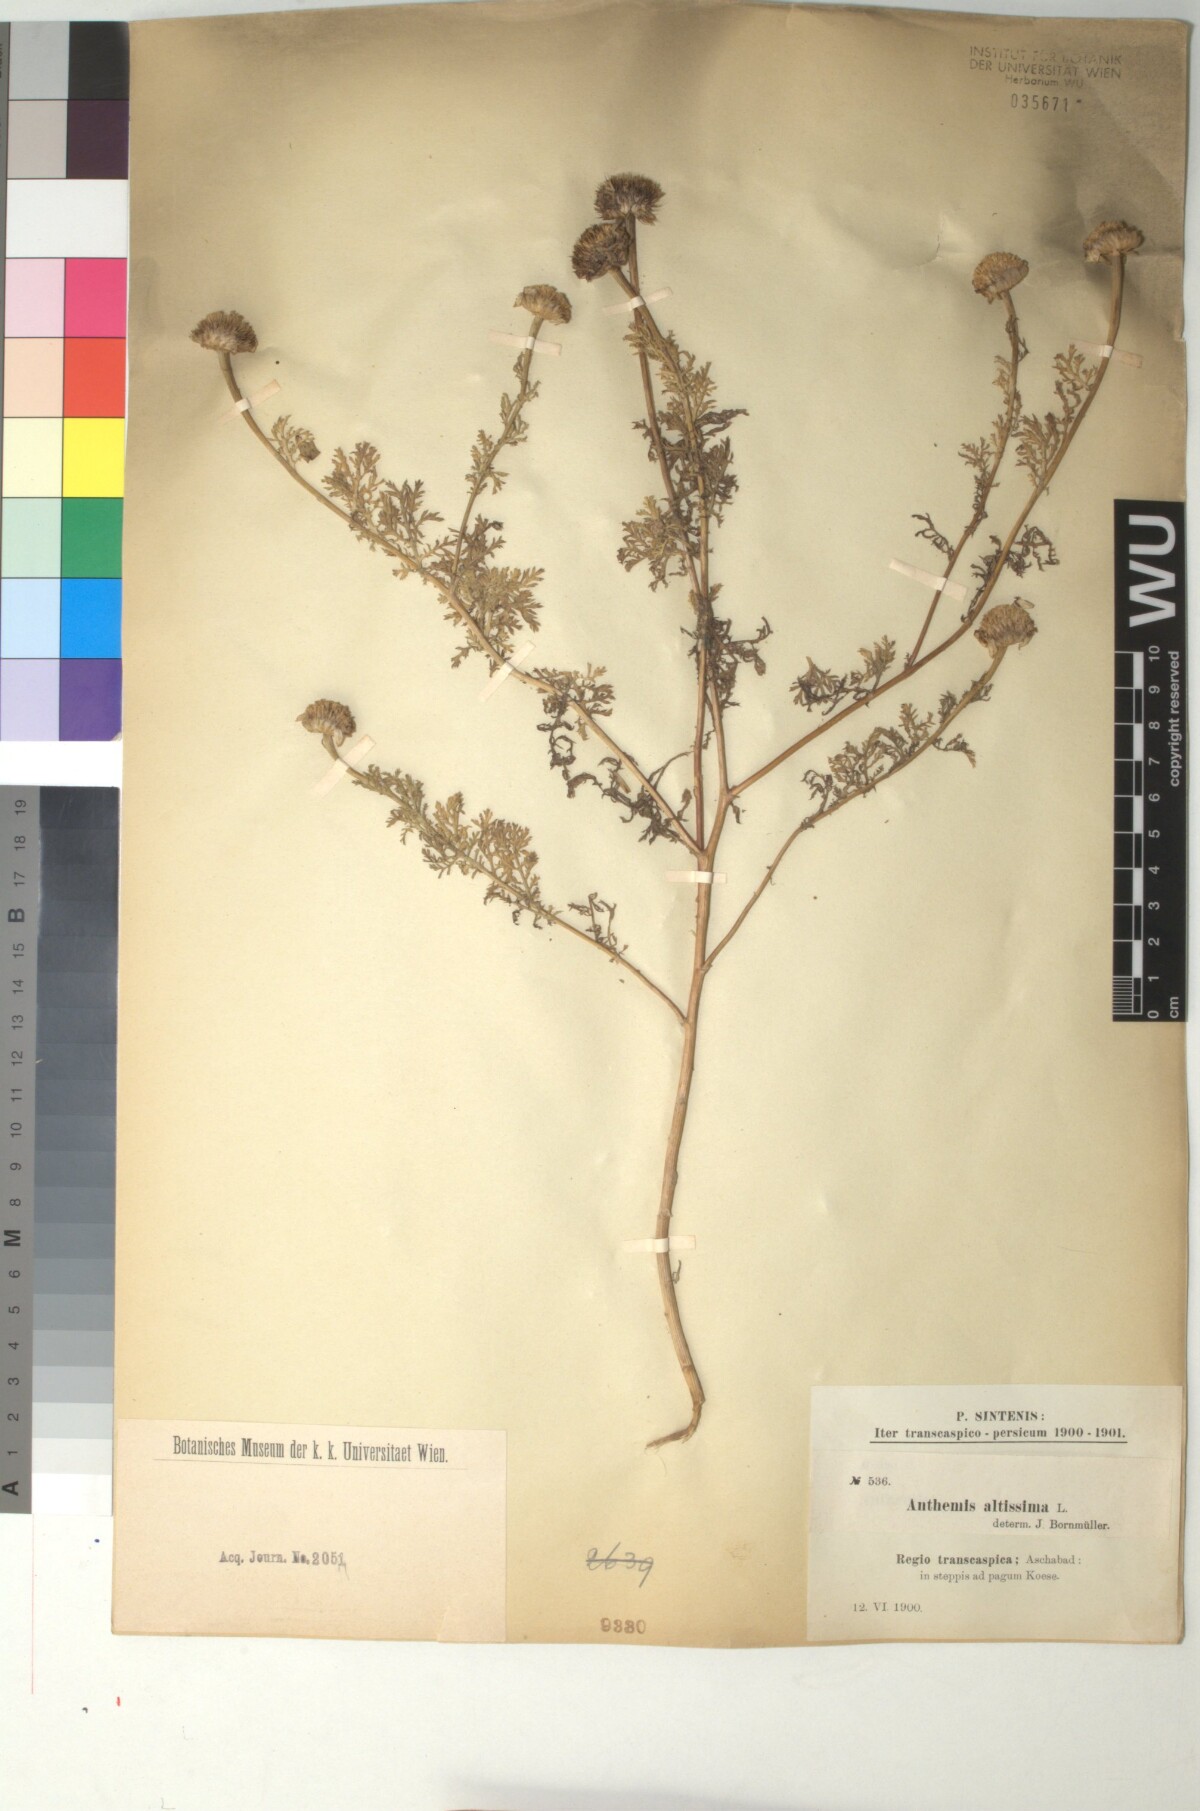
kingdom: Plantae
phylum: Tracheophyta
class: Magnoliopsida
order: Asterales
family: Asteraceae
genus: Cota
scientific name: Cota altissima
